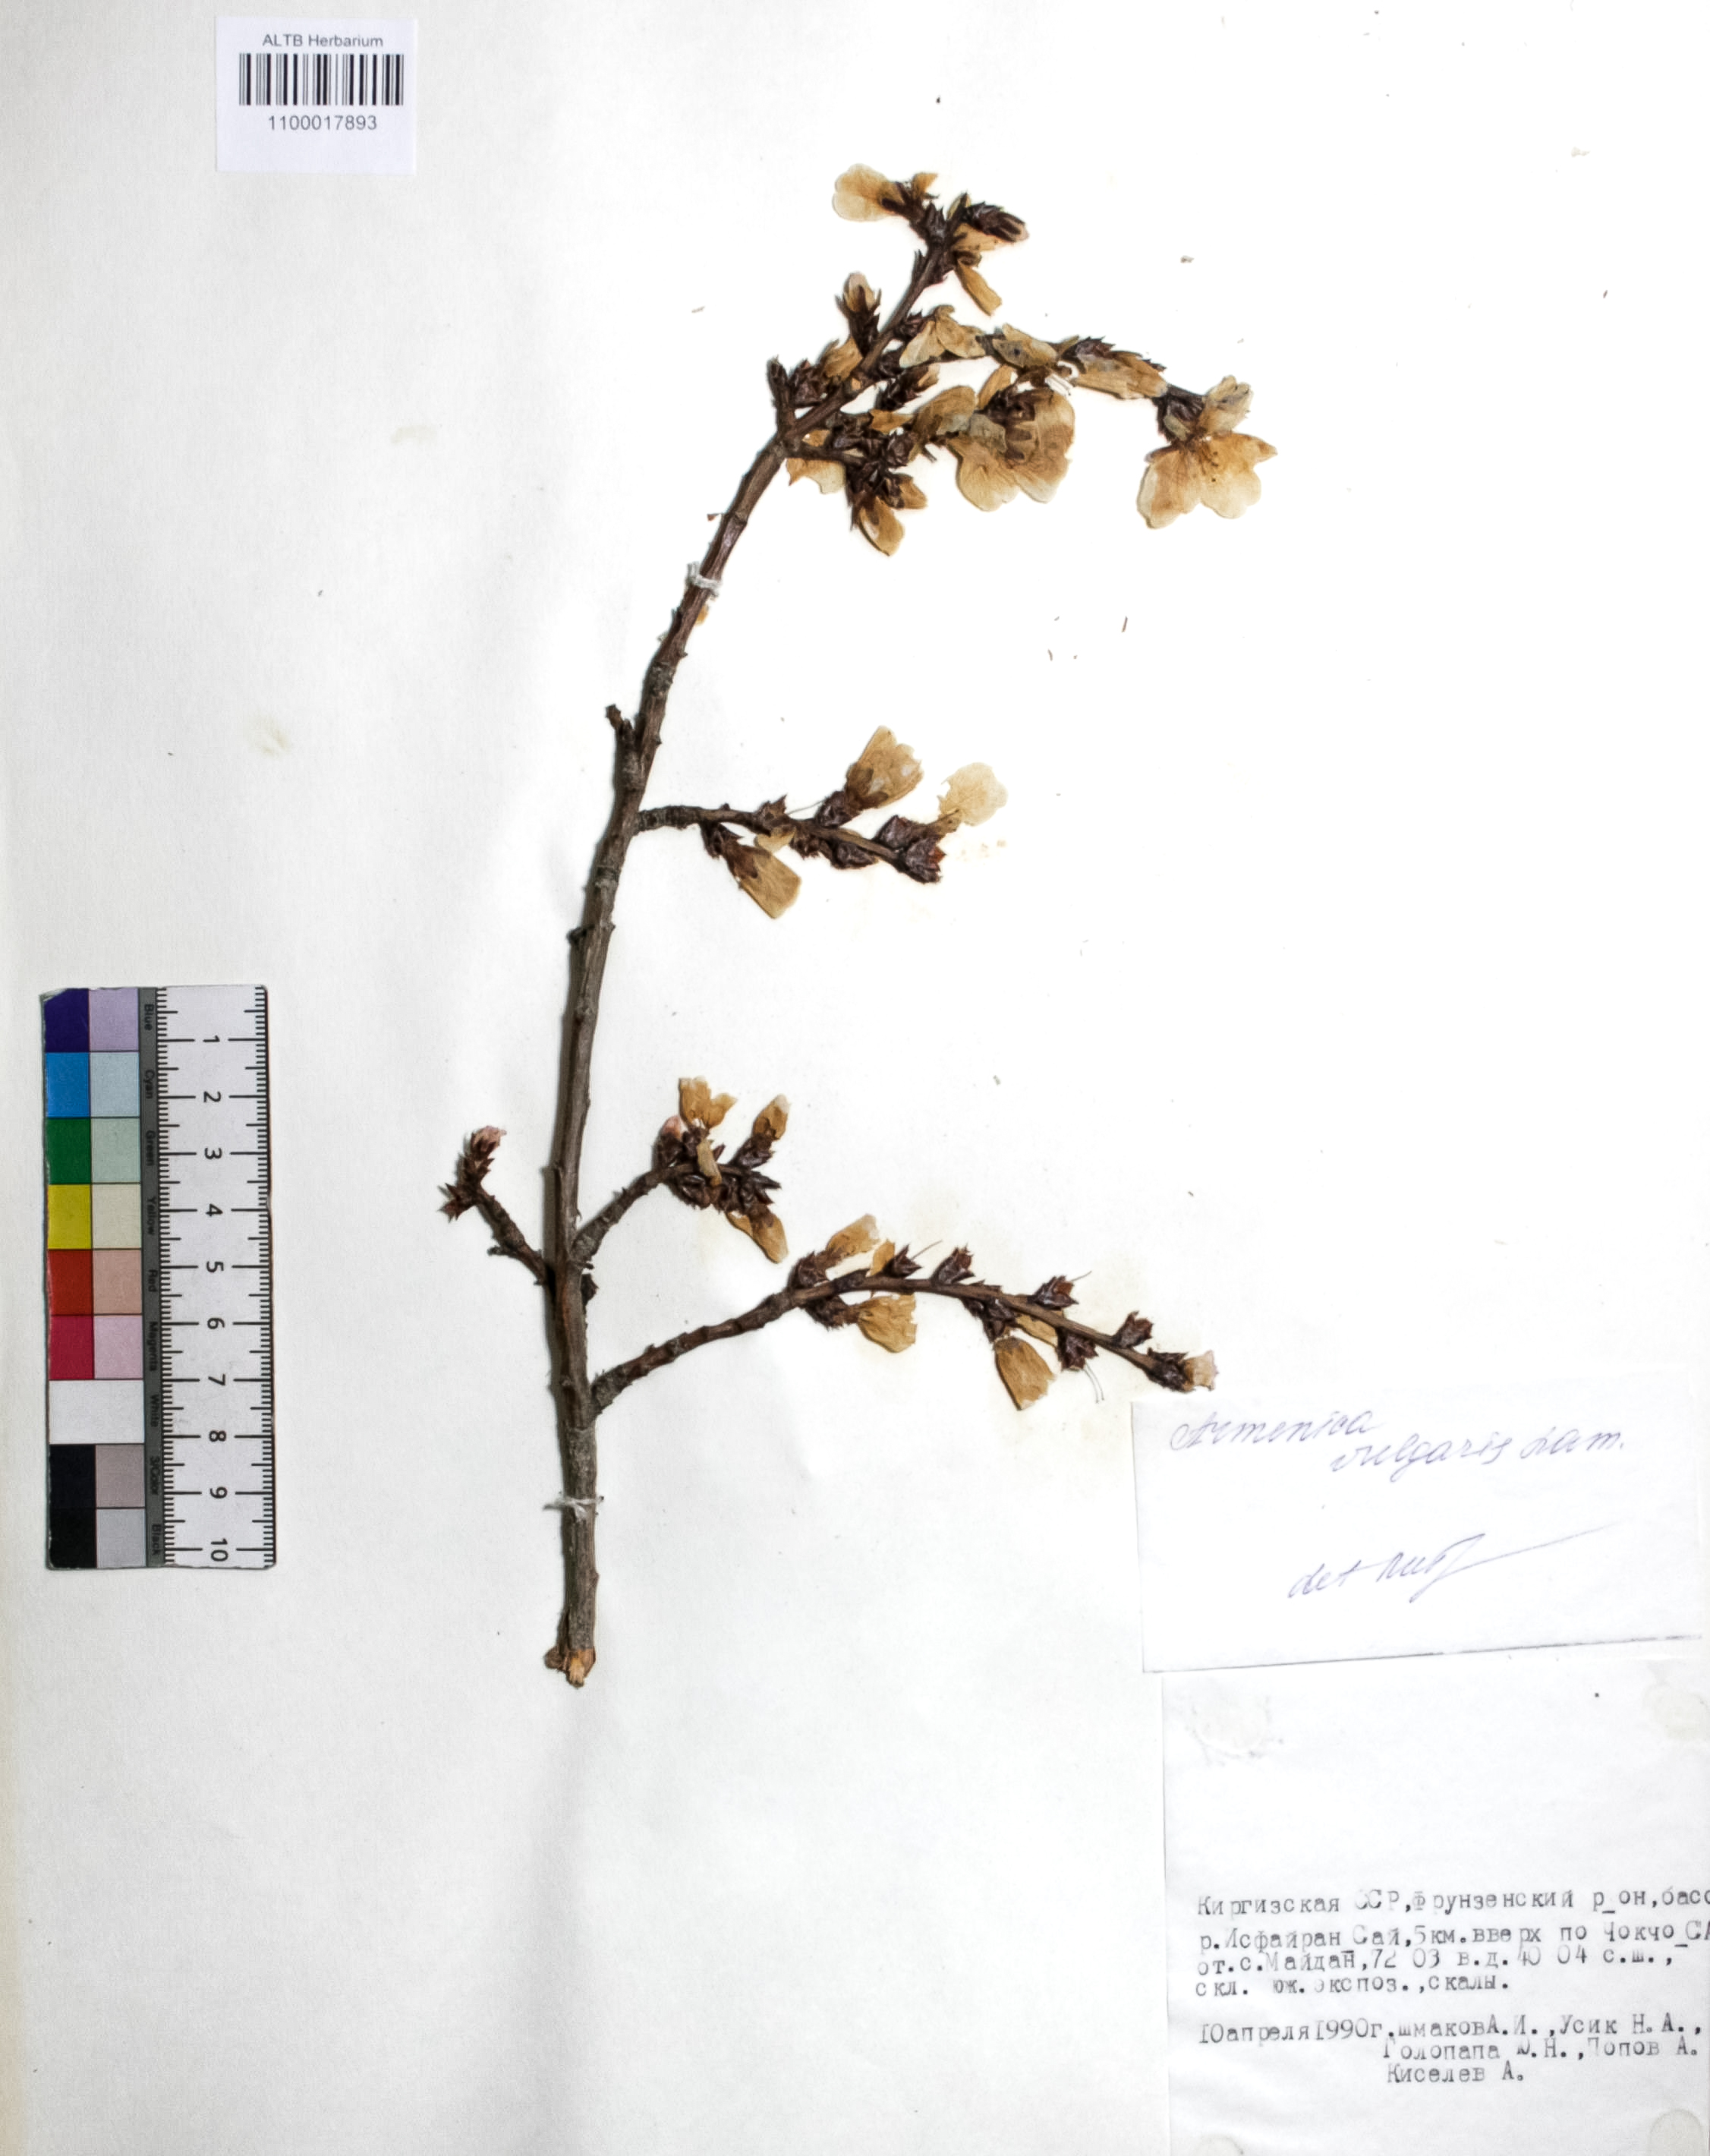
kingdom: Plantae
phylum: Tracheophyta
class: Magnoliopsida
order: Rosales
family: Rosaceae
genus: Prunus
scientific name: Prunus armeniaca
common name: Apricot
